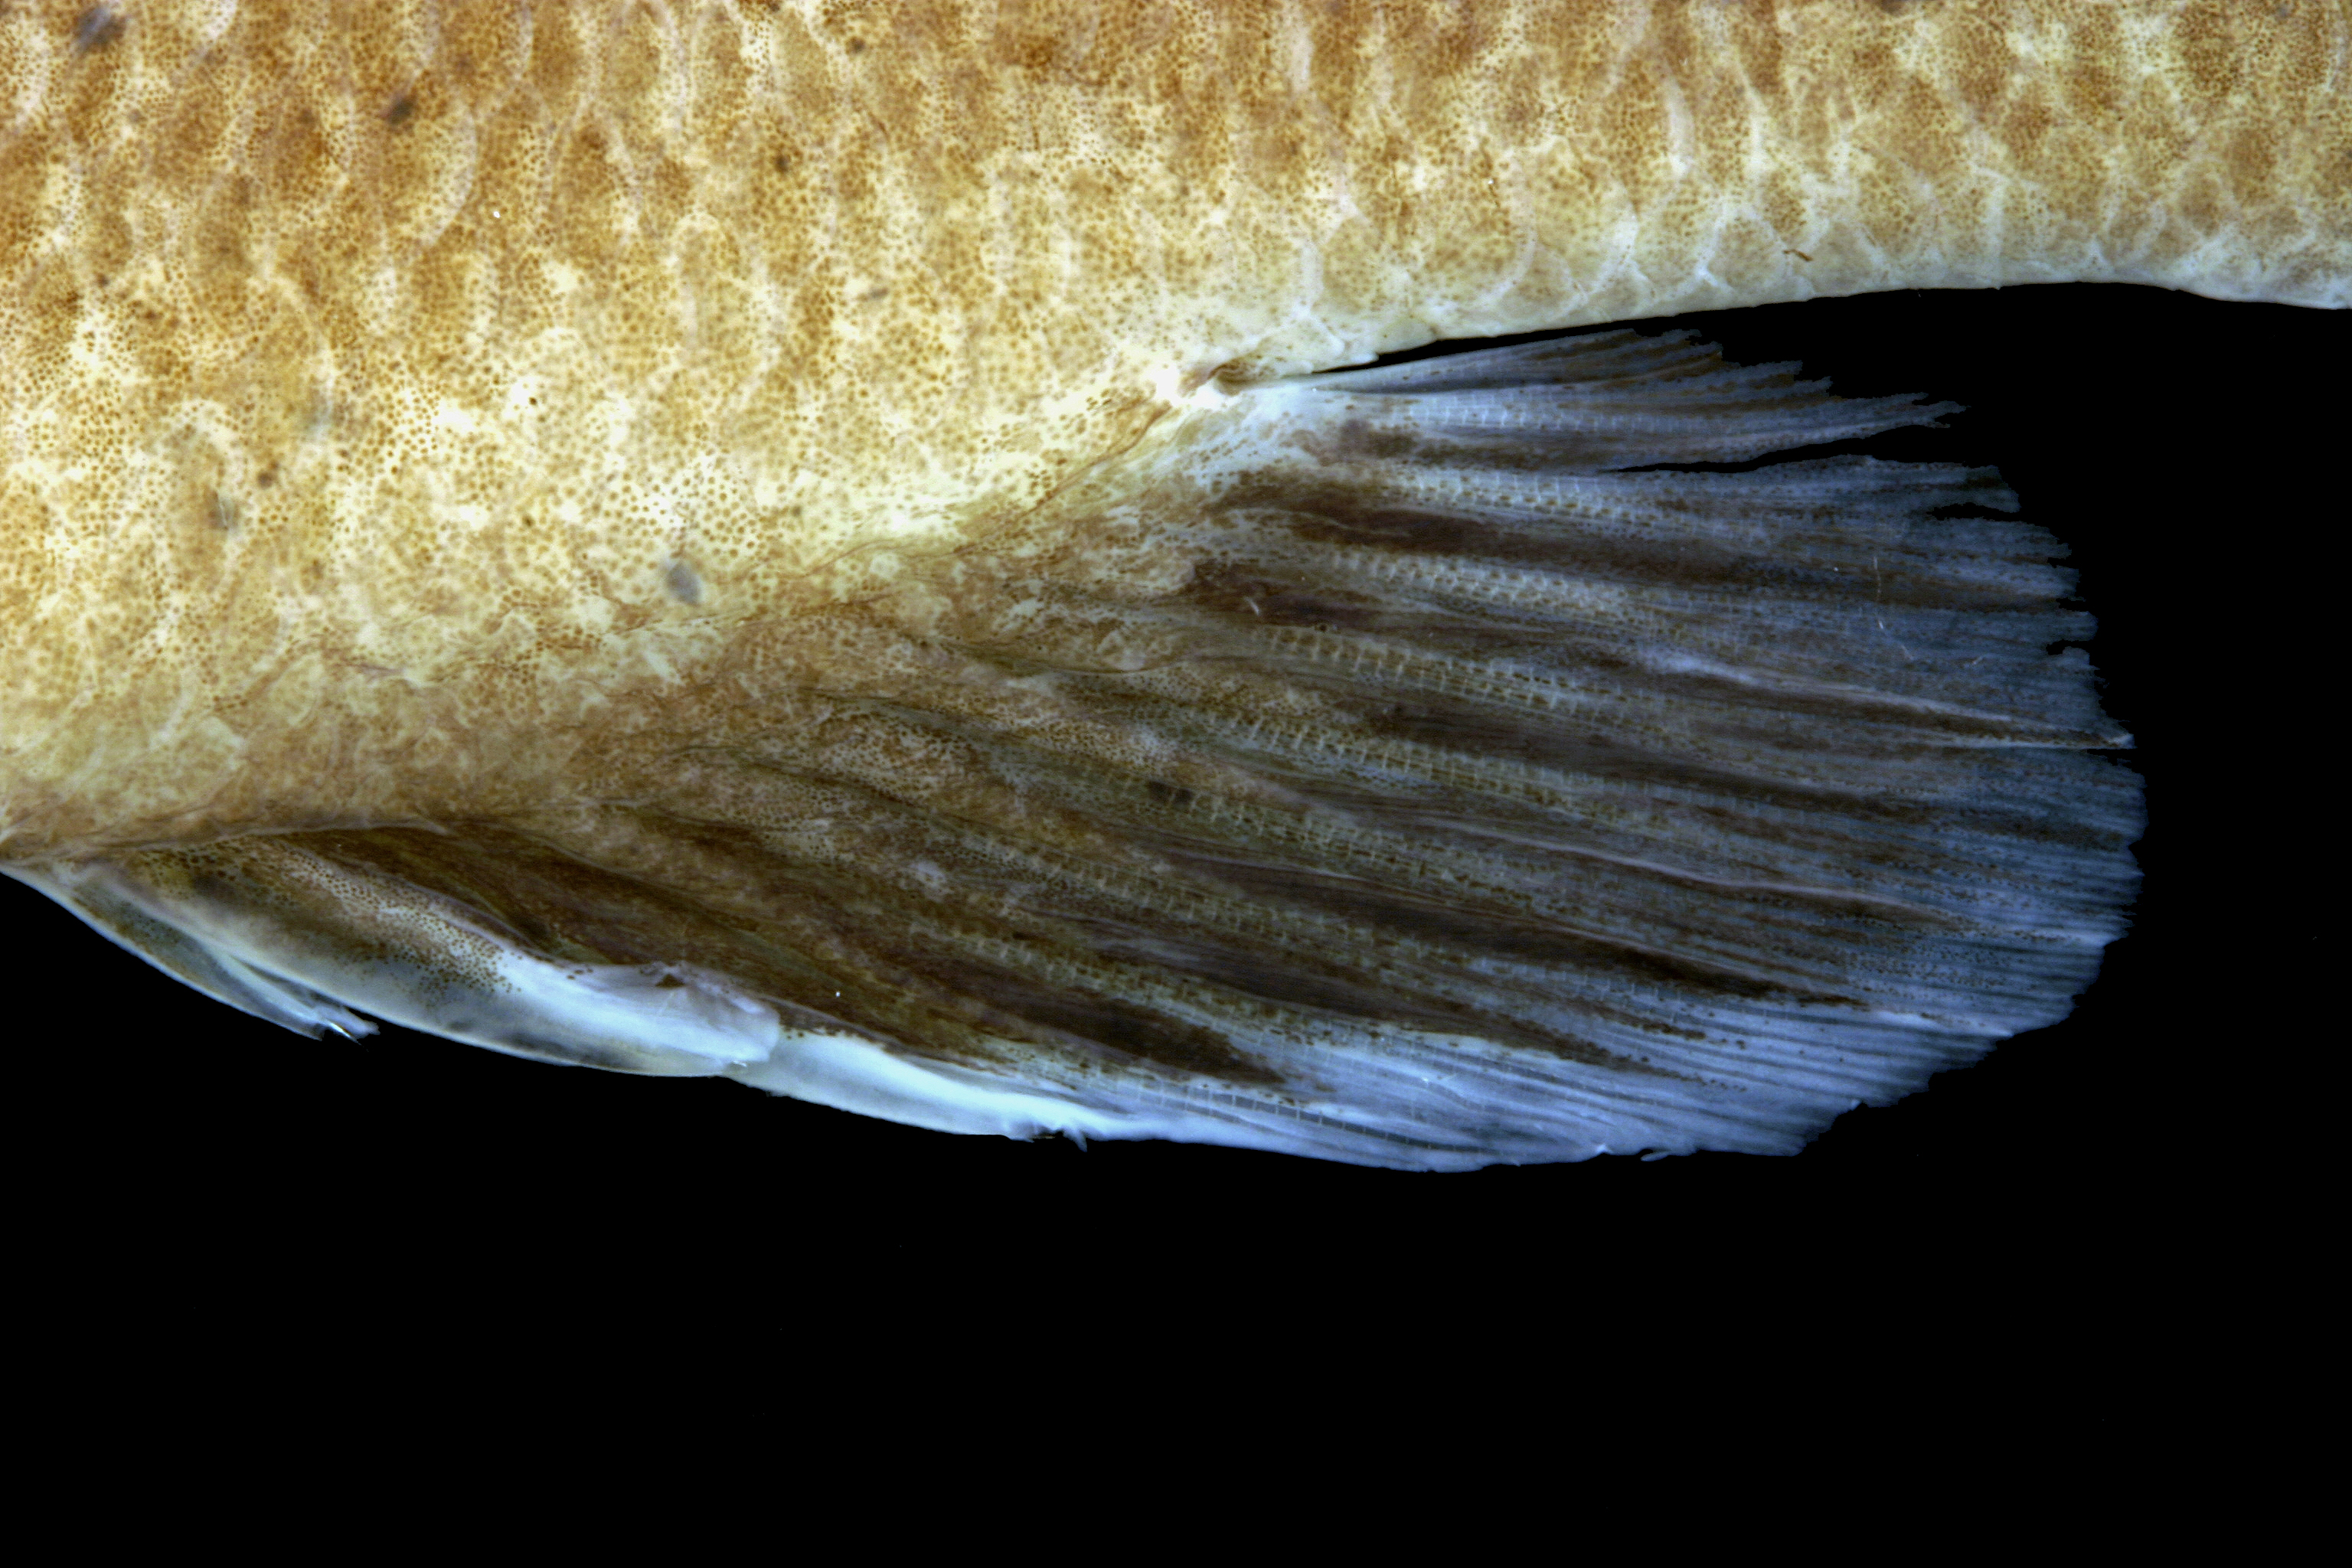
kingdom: Animalia
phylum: Chordata
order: Perciformes
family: Centrarchidae
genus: Lepomis
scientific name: Lepomis cyanellus
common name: Green sunfish
